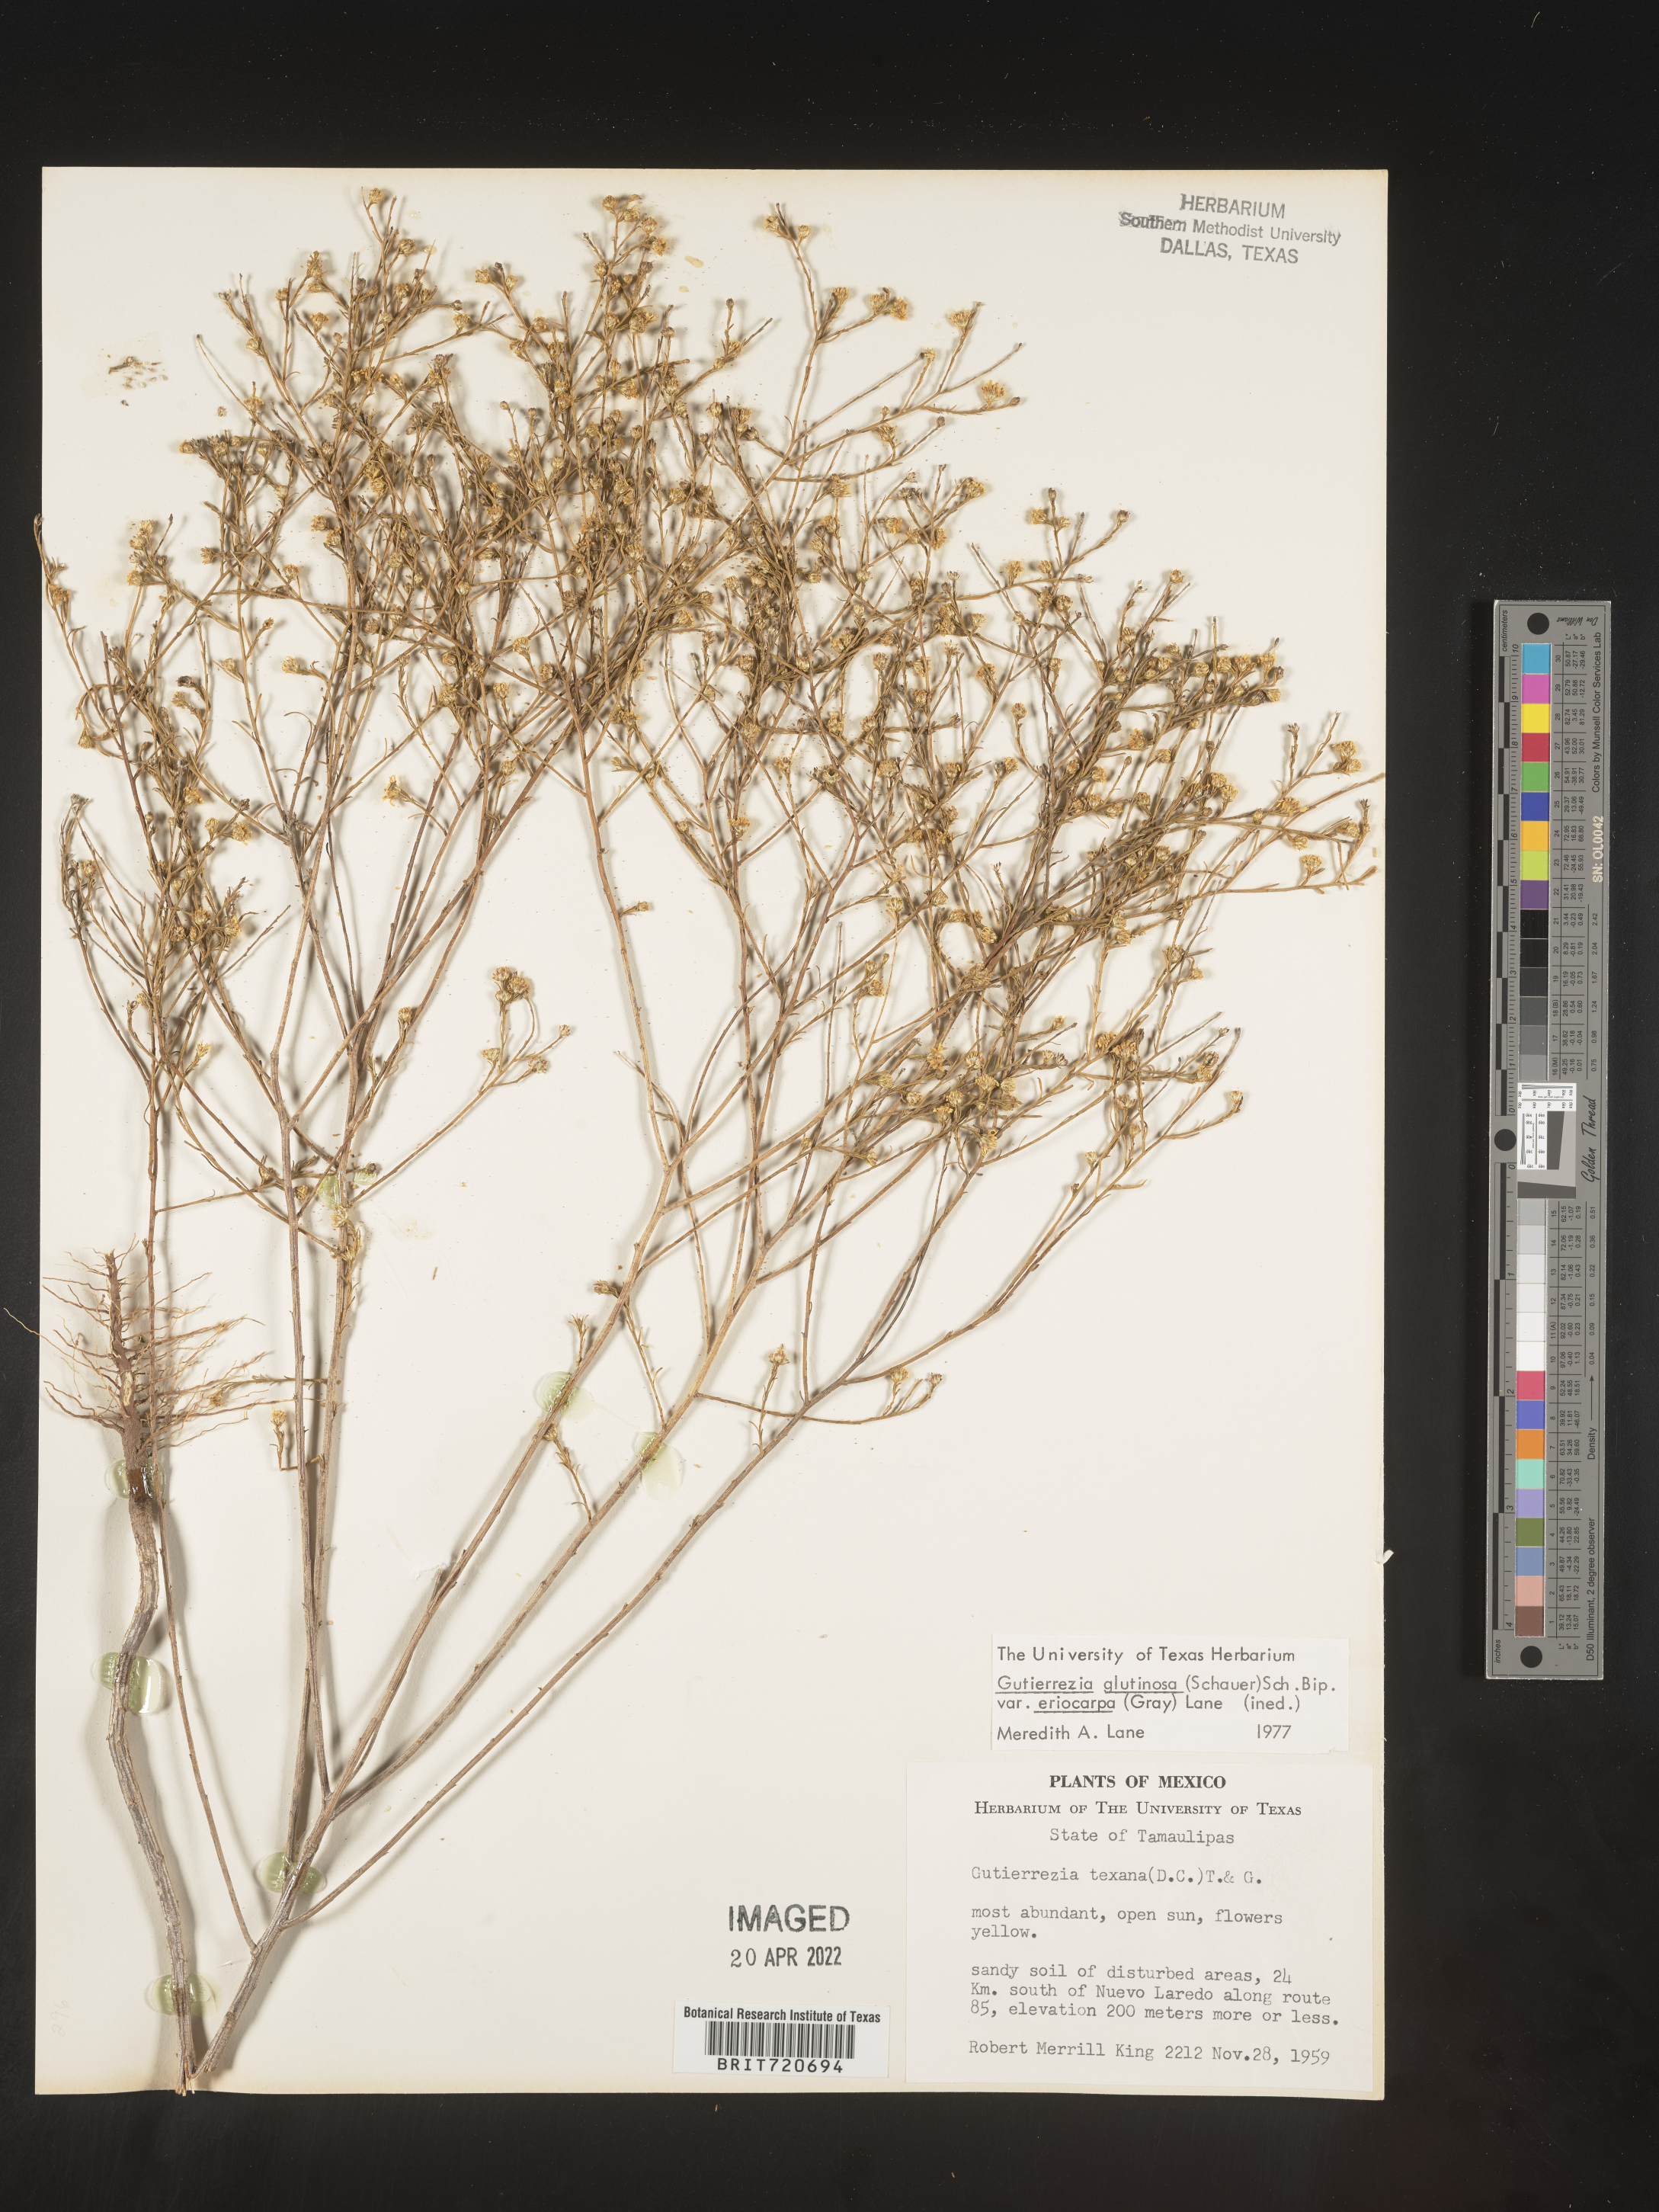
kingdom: Plantae
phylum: Tracheophyta
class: Magnoliopsida
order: Asterales
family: Asteraceae
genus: Gutierrezia
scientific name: Gutierrezia sphaerocephala
